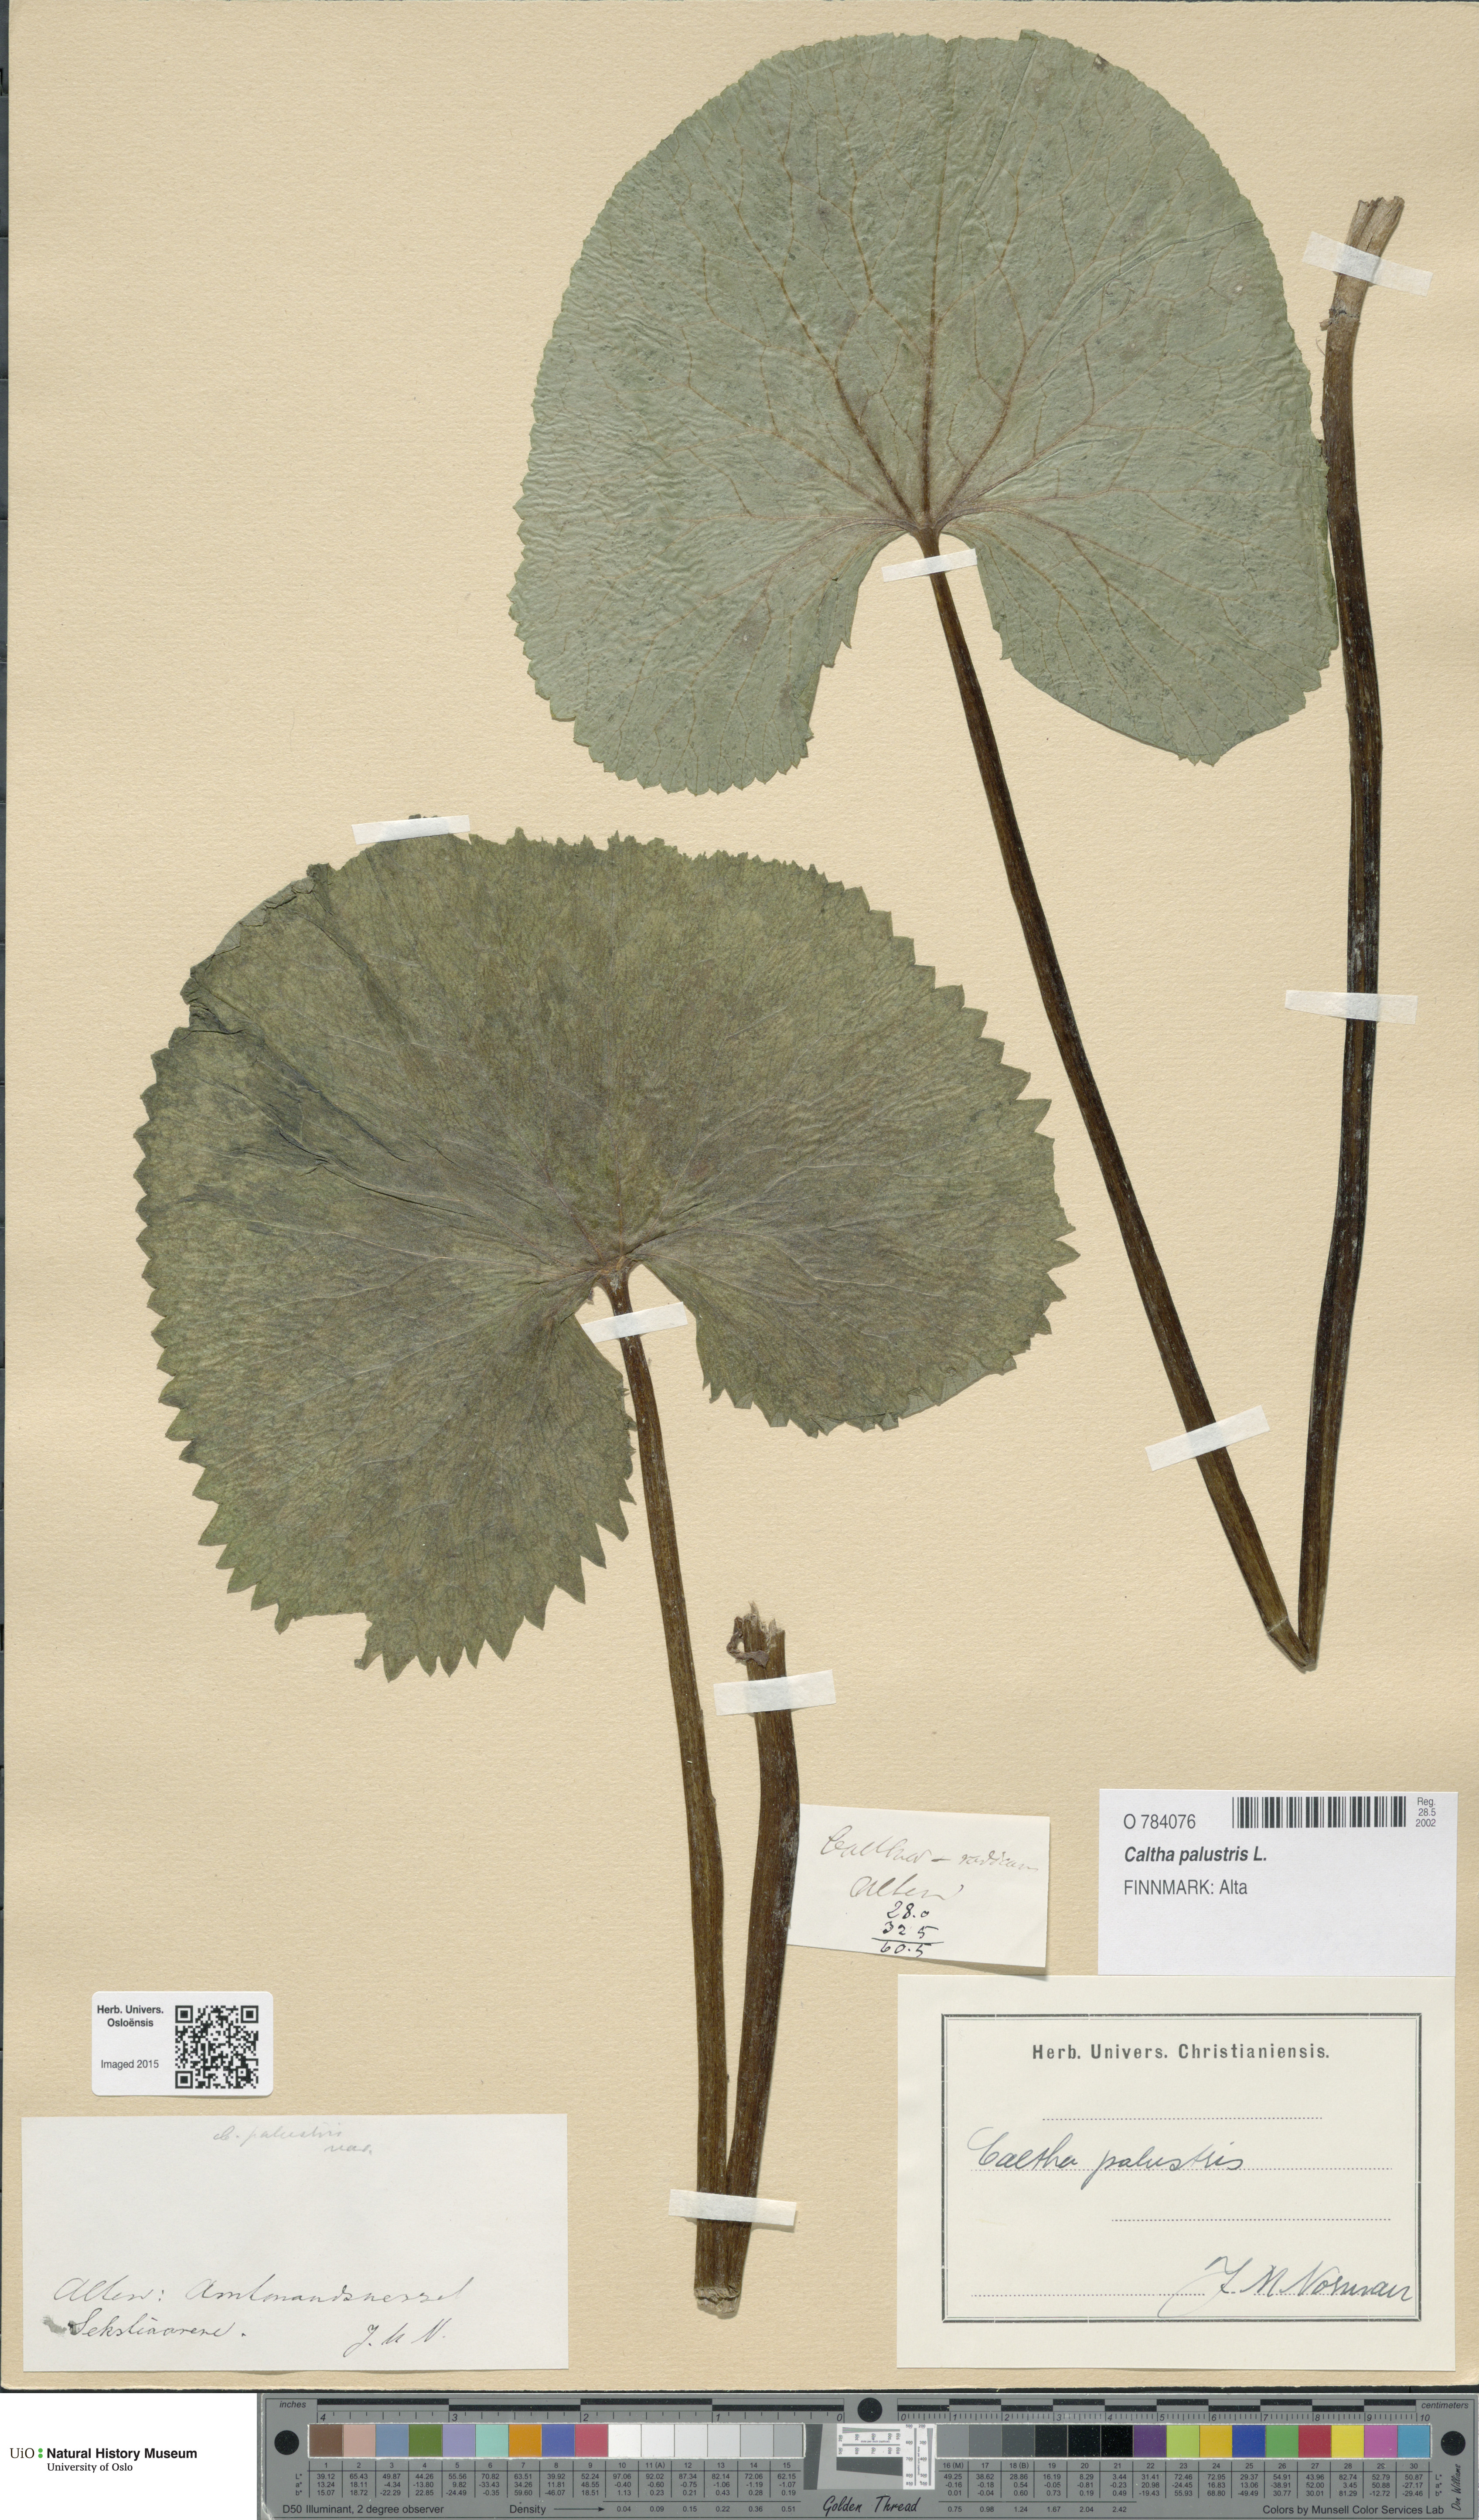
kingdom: Plantae
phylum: Tracheophyta
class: Magnoliopsida
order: Ranunculales
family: Ranunculaceae
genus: Caltha
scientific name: Caltha palustris
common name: Marsh marigold
